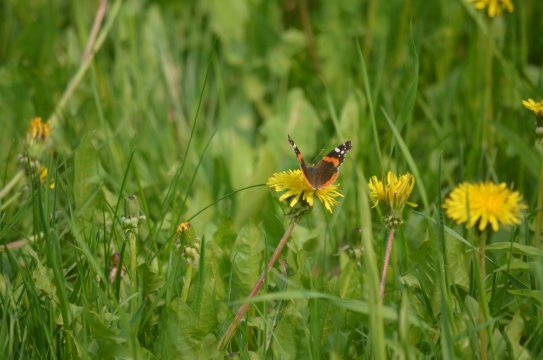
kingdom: Animalia
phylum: Arthropoda
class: Insecta
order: Lepidoptera
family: Nymphalidae
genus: Vanessa
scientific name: Vanessa atalanta
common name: Red Admiral
